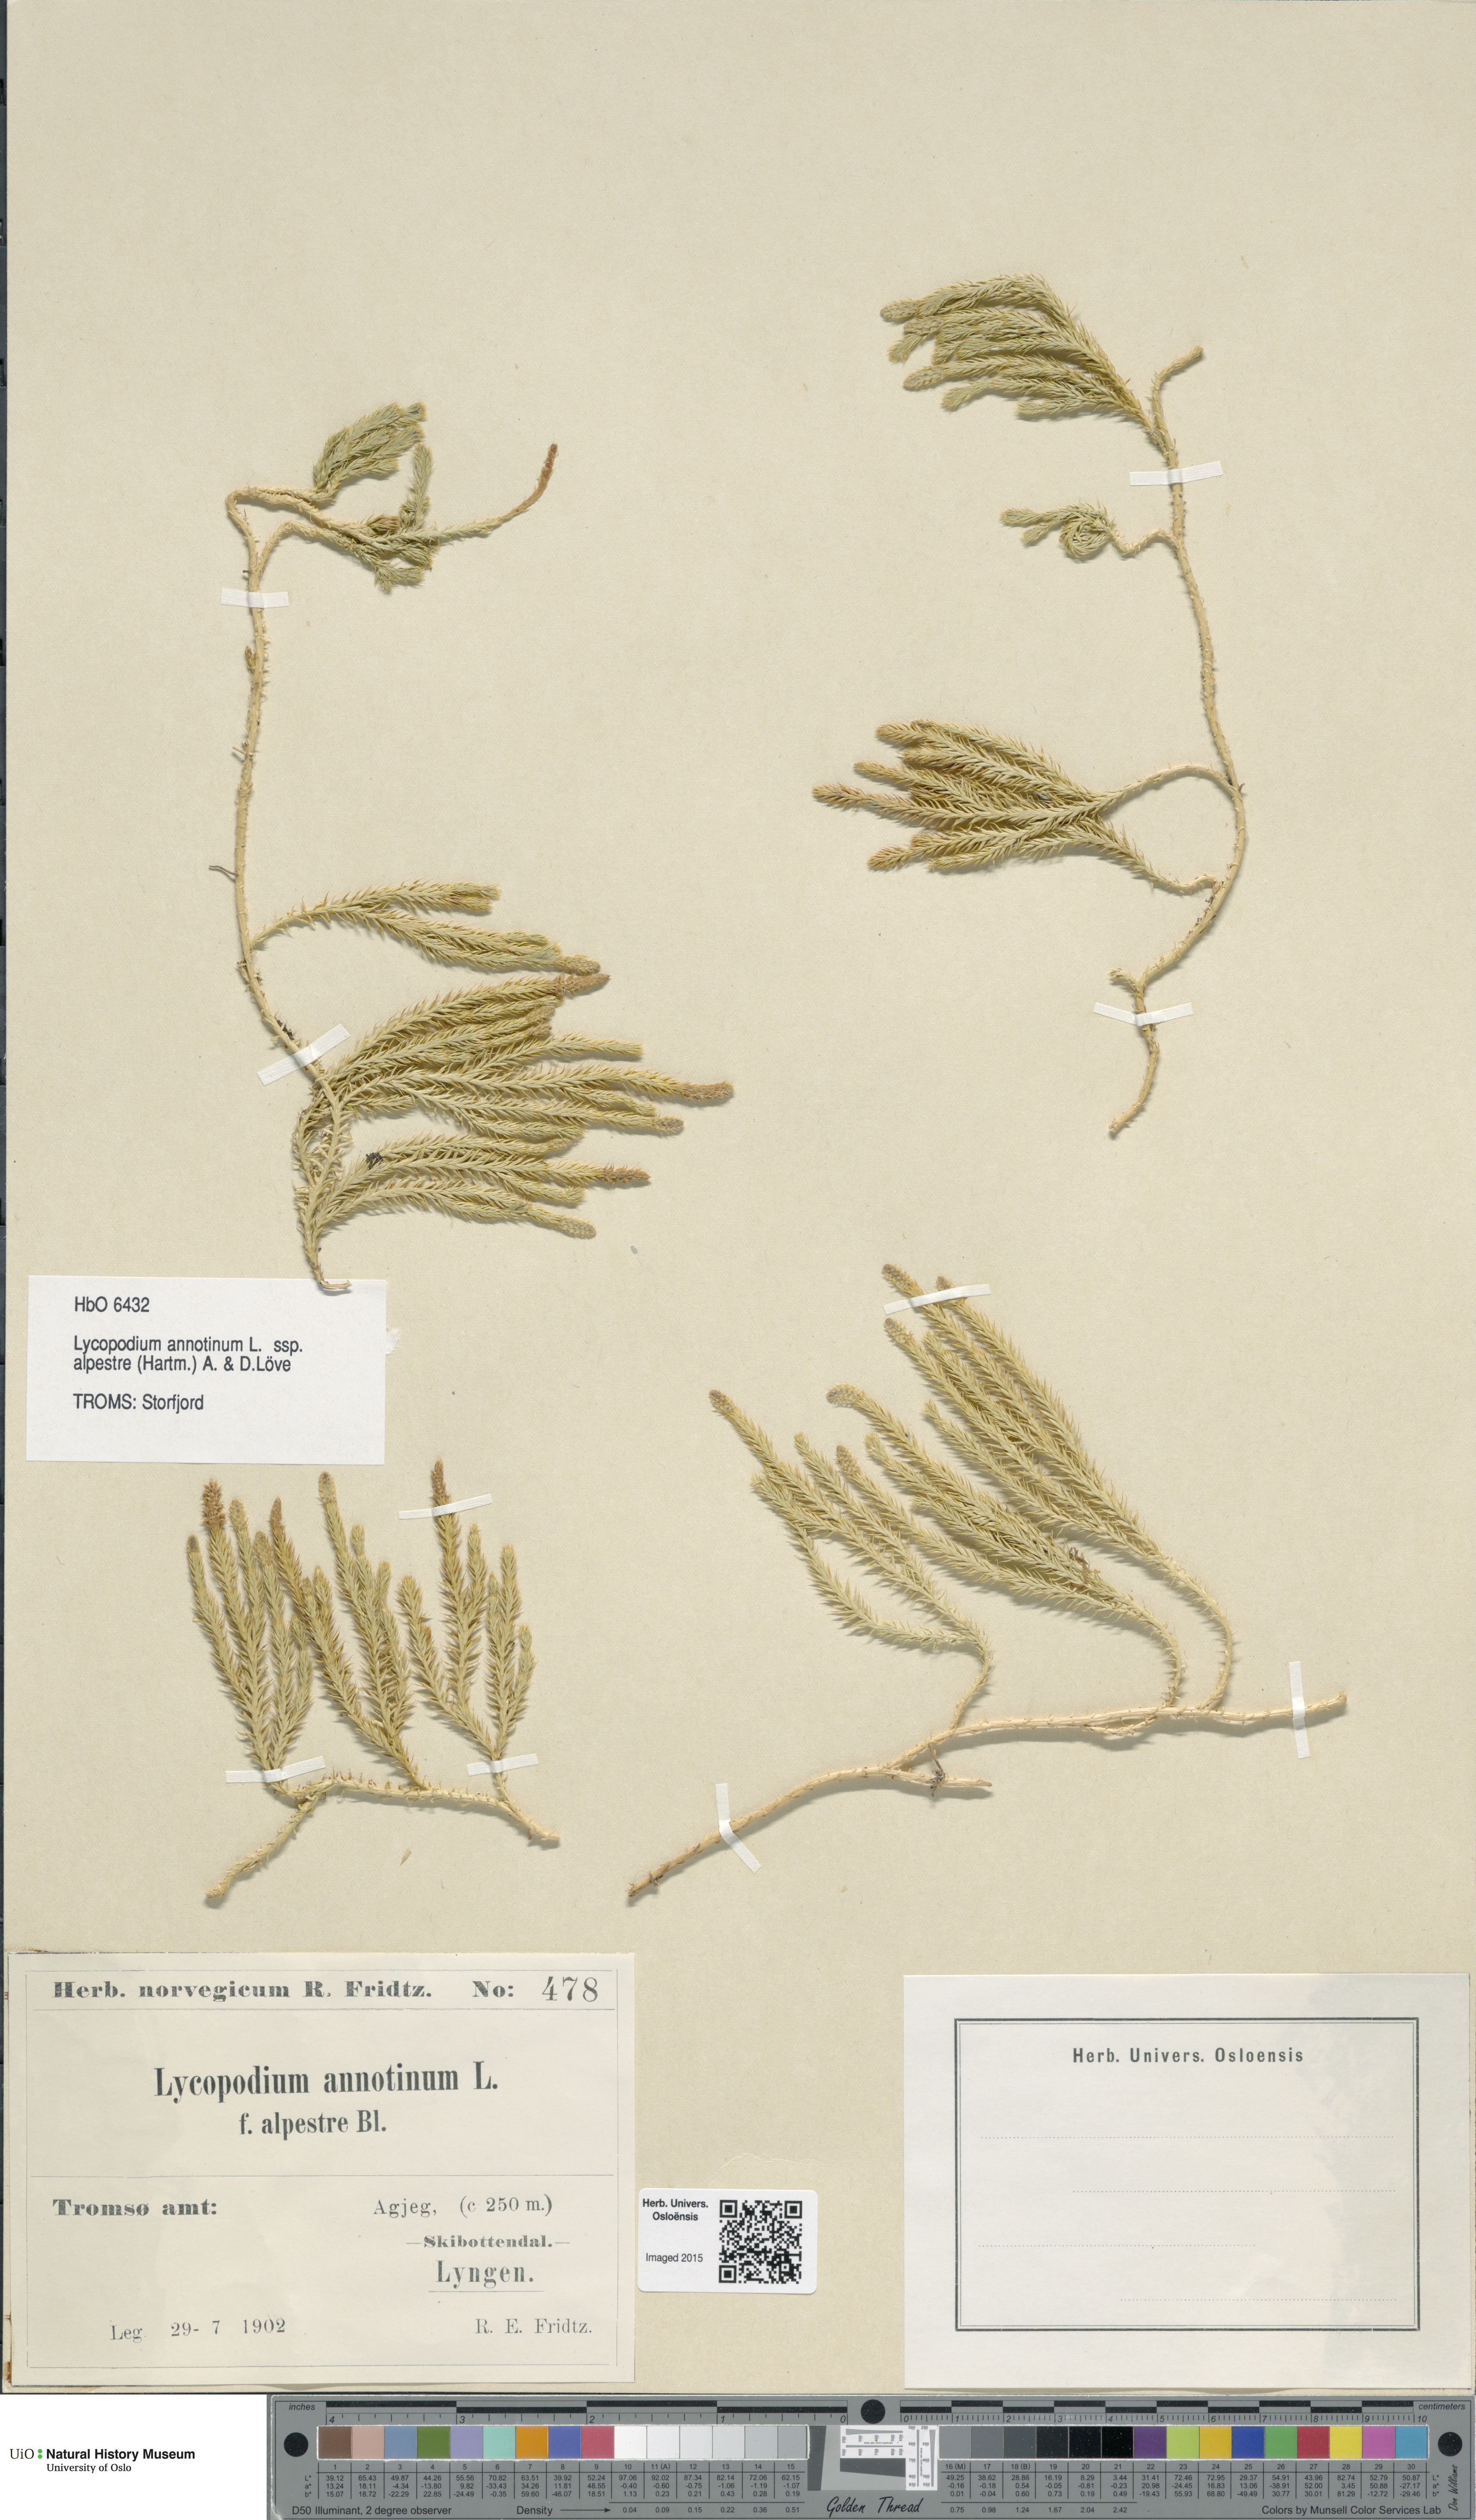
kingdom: Plantae
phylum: Tracheophyta
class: Lycopodiopsida
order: Lycopodiales
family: Lycopodiaceae
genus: Spinulum
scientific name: Spinulum annotinum
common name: Interrupted club-moss
